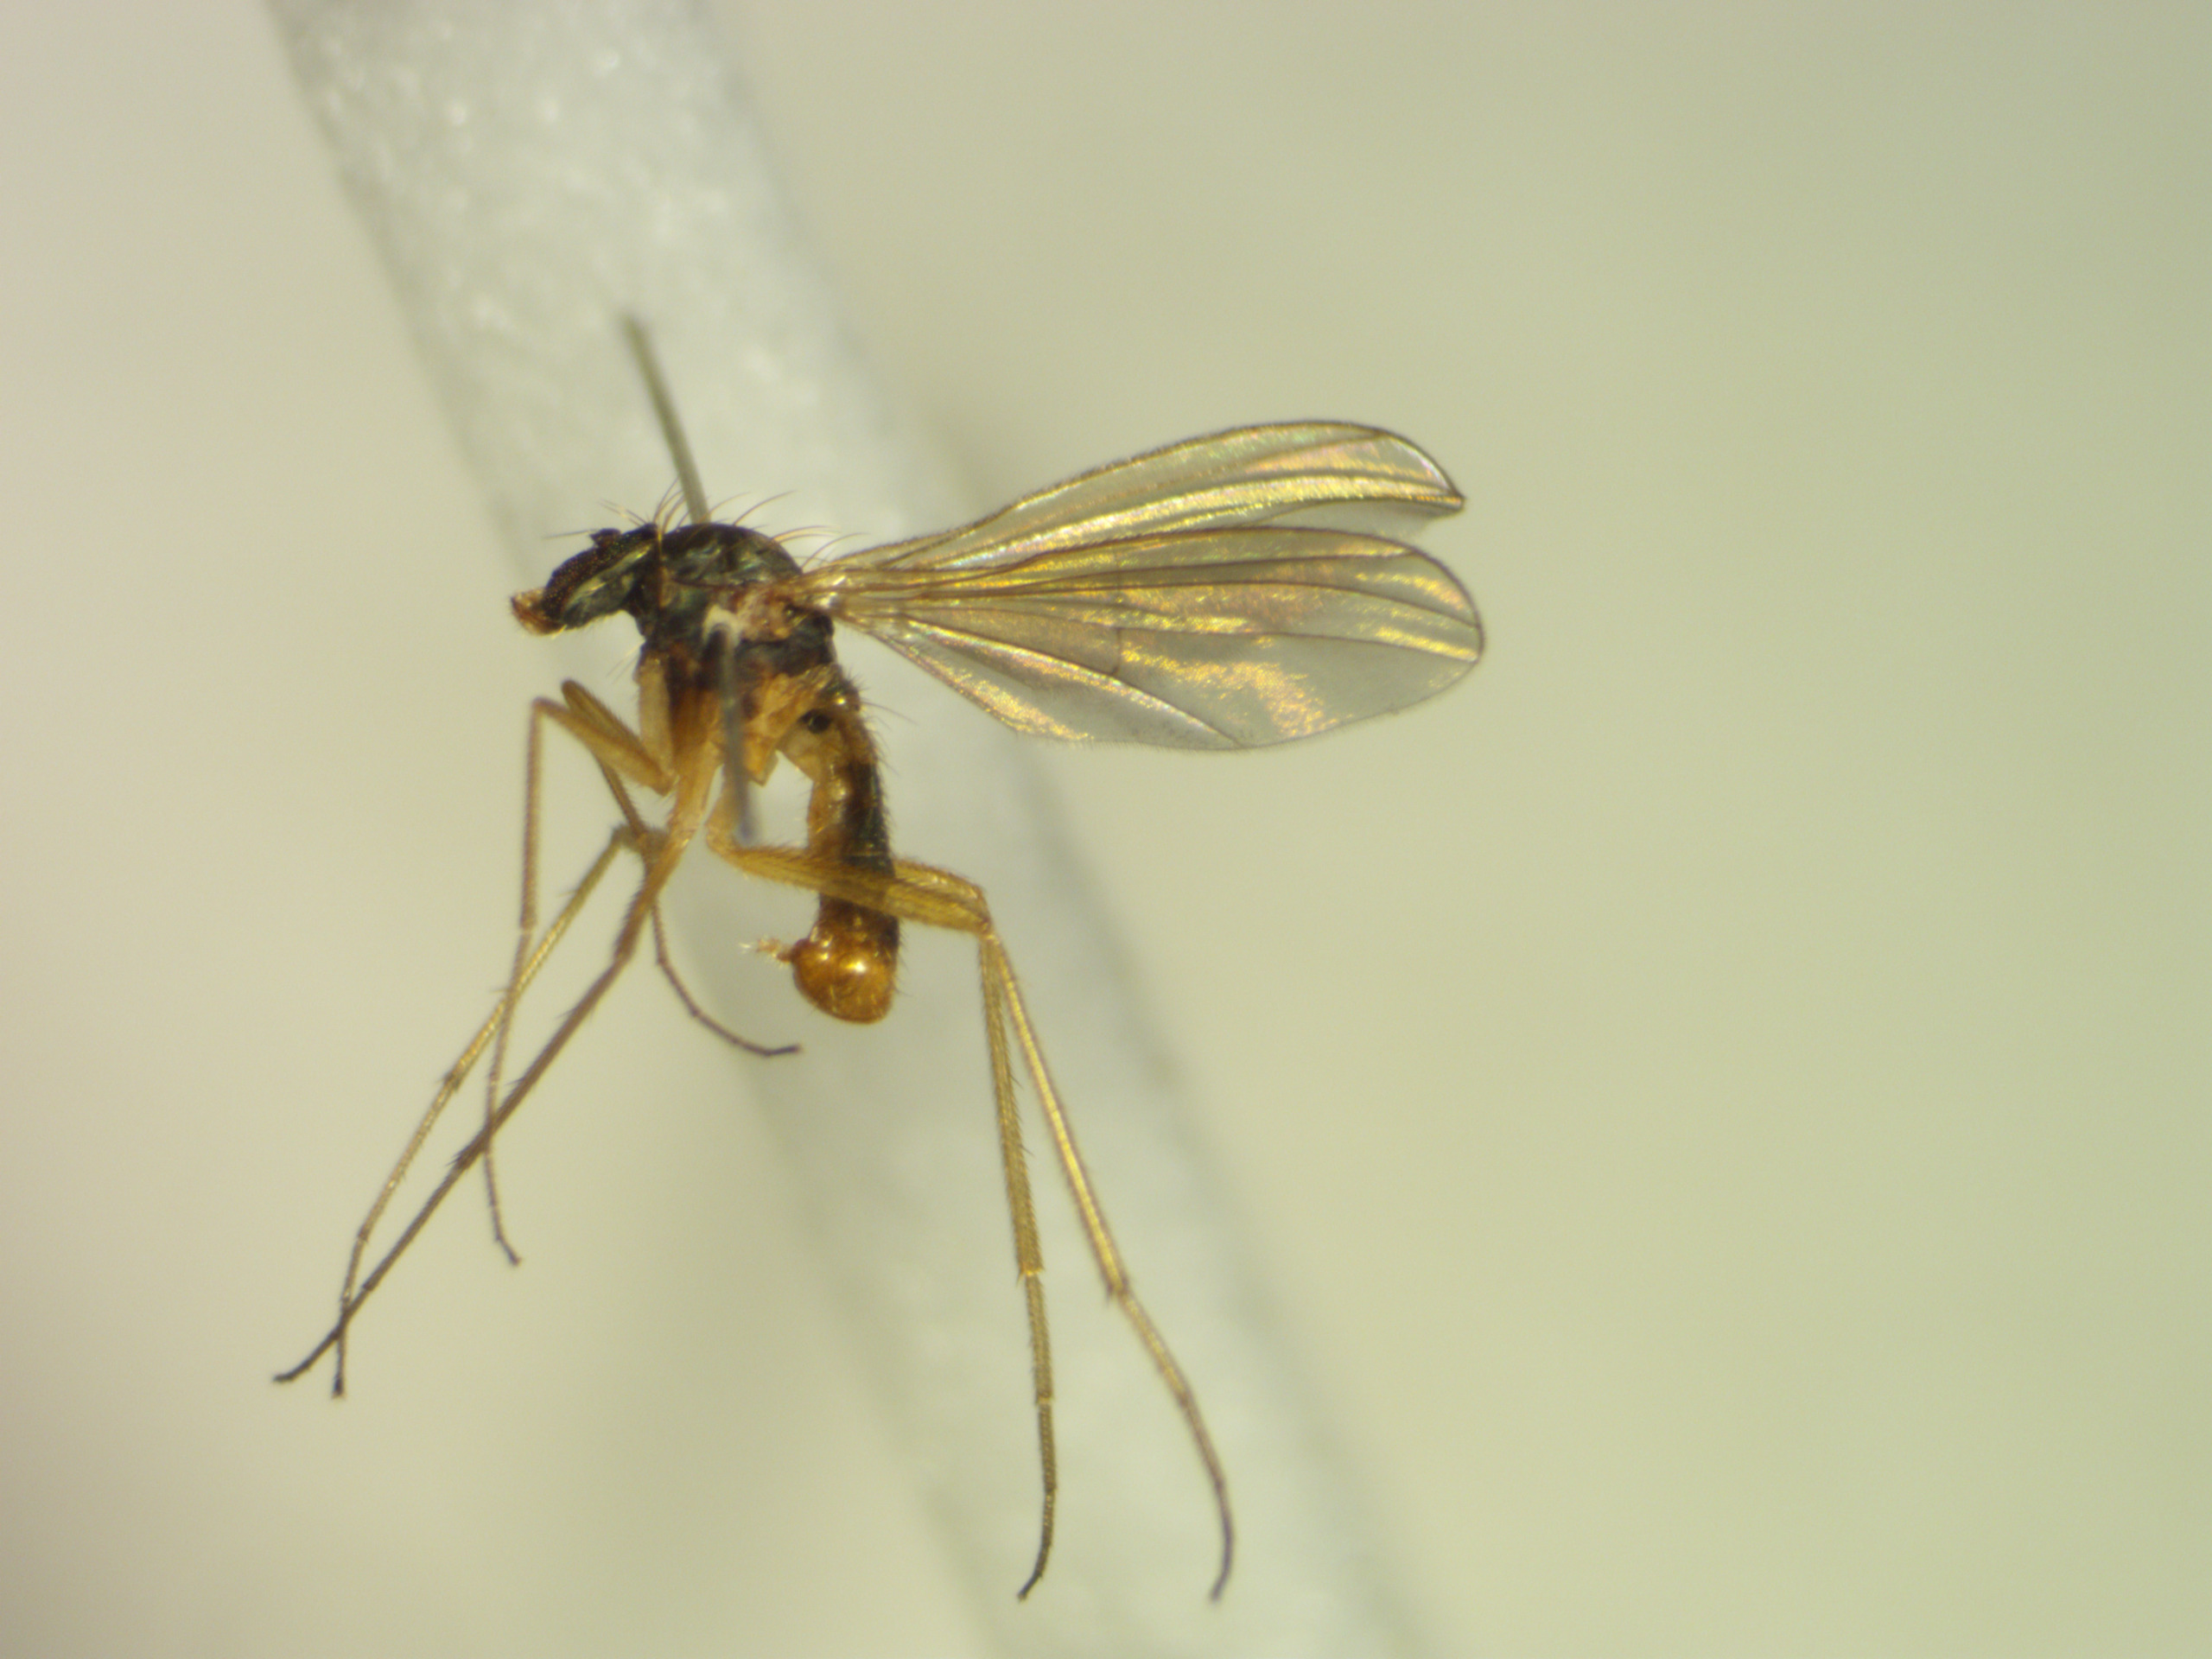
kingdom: Animalia
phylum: Arthropoda
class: Insecta
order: Diptera
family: Dolichopodidae
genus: Xanthochlorus
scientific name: Xanthochlorus ornatus
